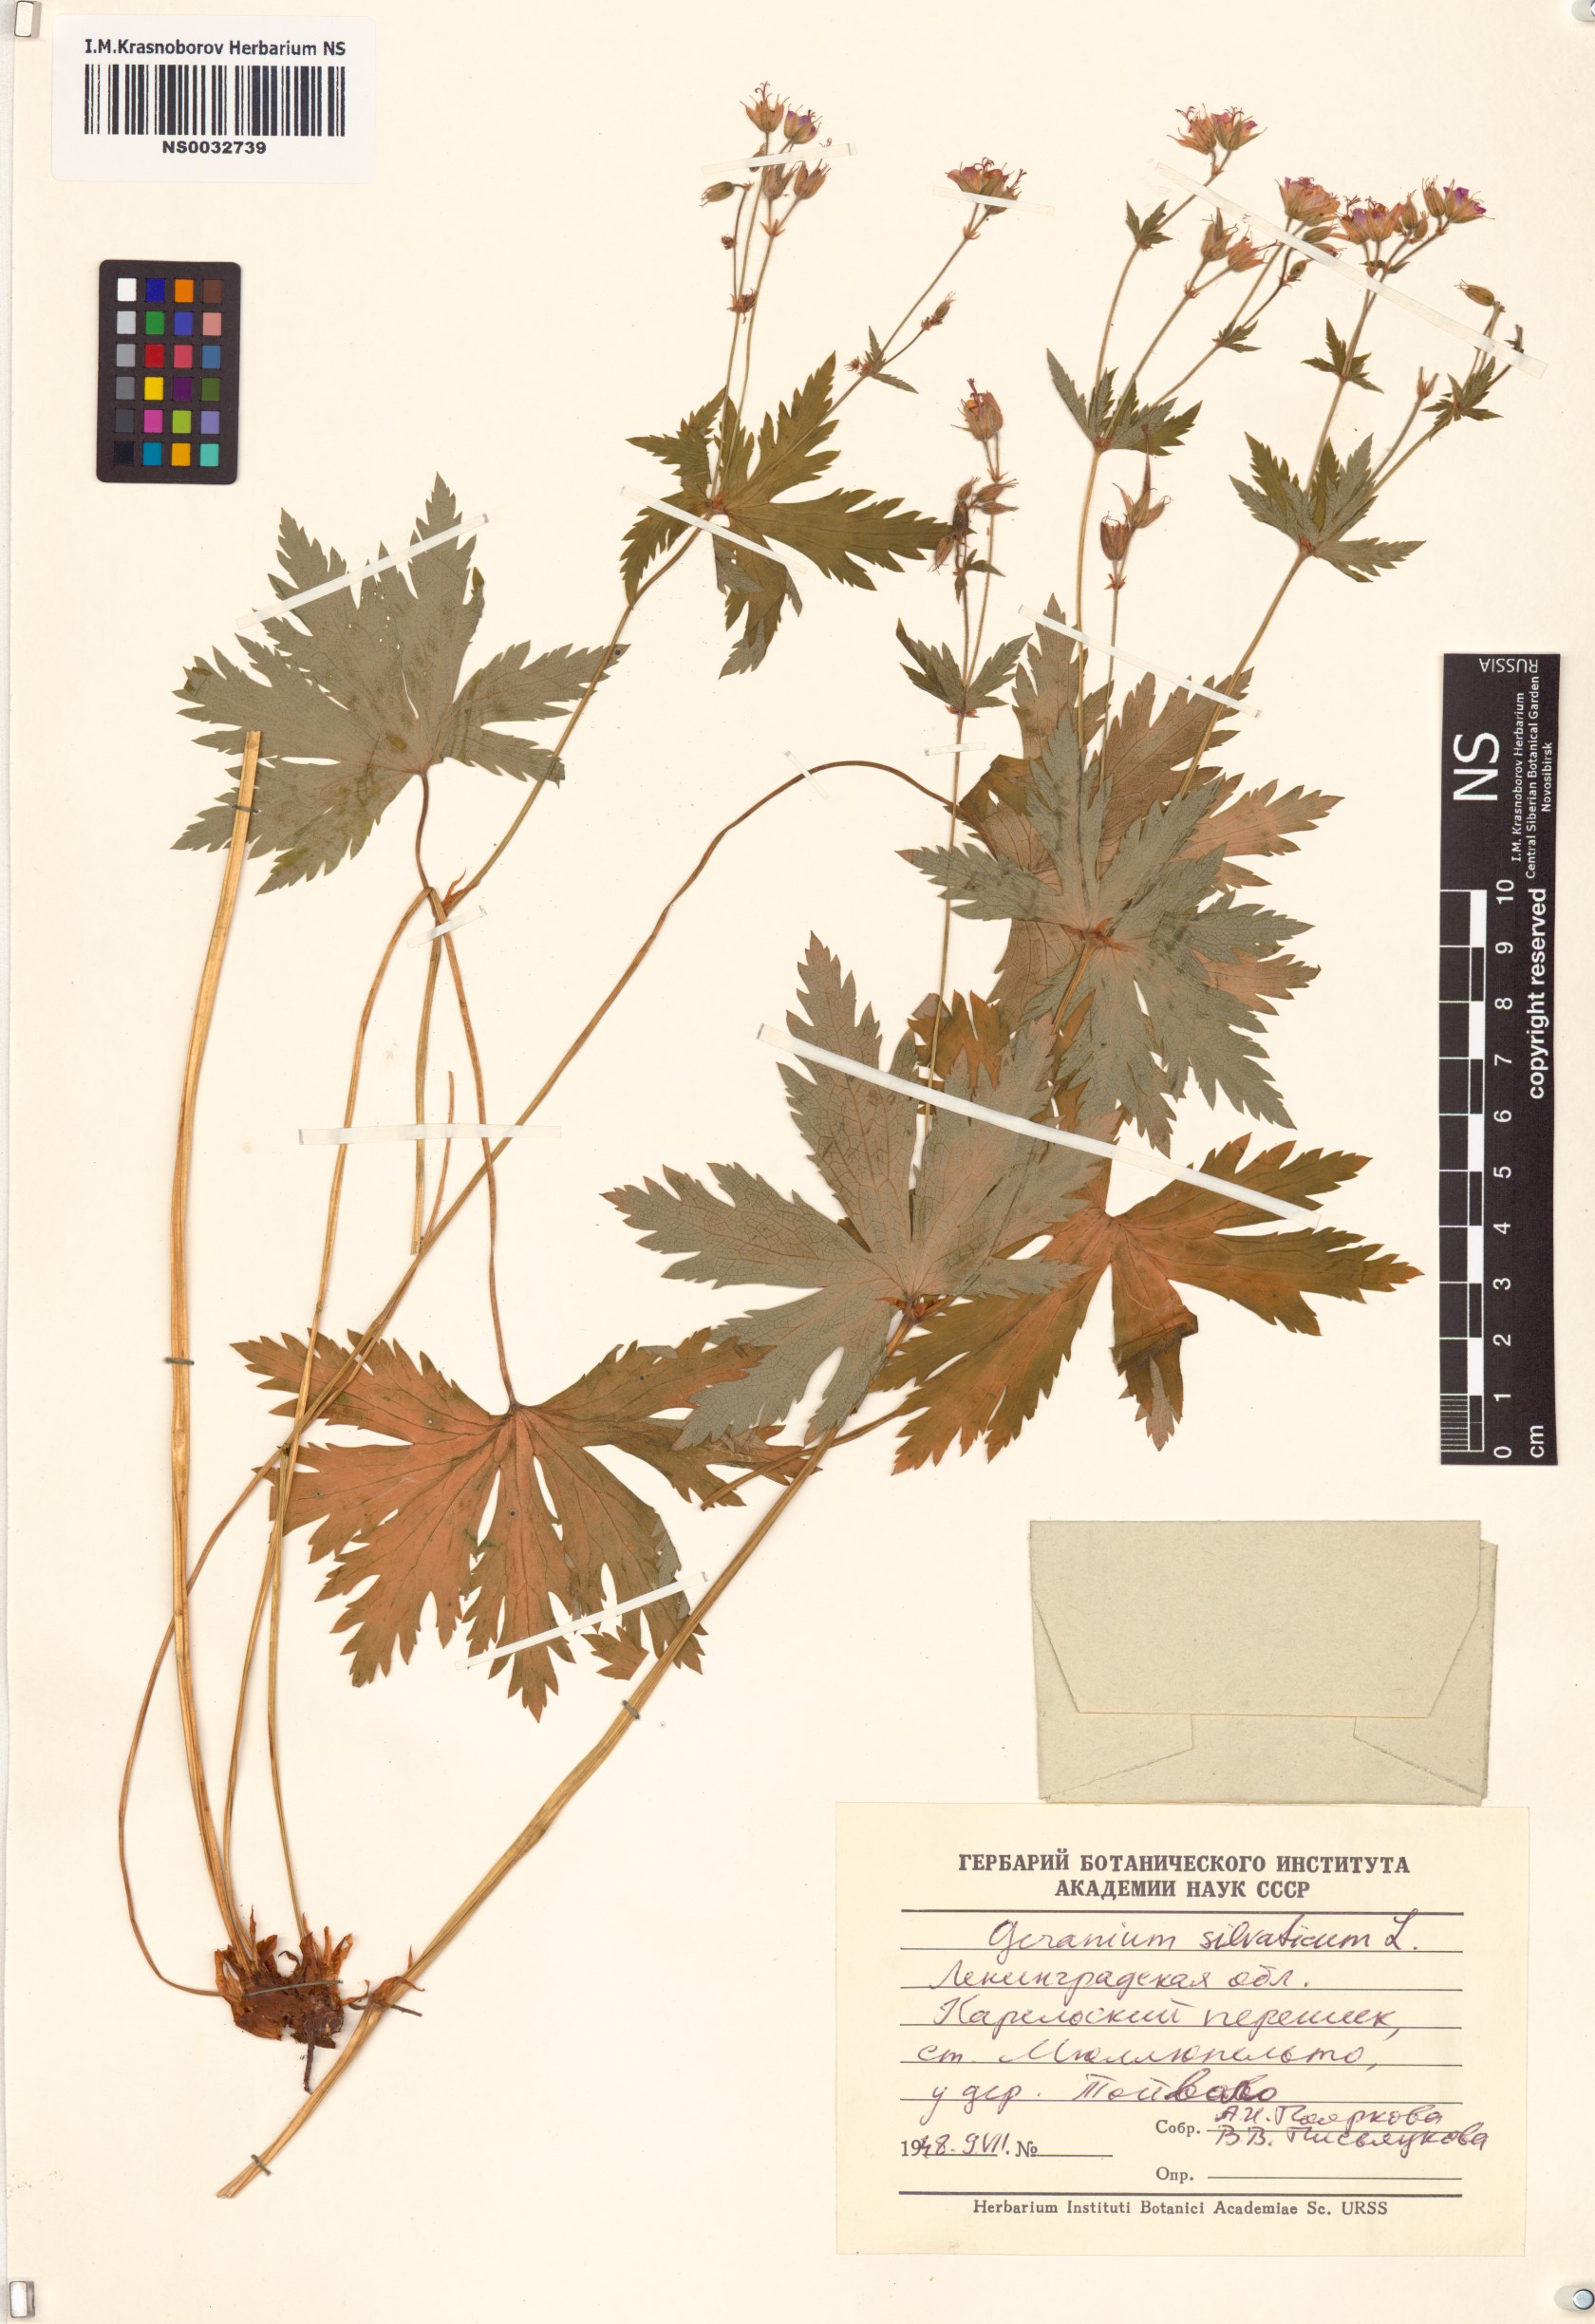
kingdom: Plantae
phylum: Tracheophyta
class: Magnoliopsida
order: Geraniales
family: Geraniaceae
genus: Geranium
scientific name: Geranium sylvaticum
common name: Wood crane's-bill
